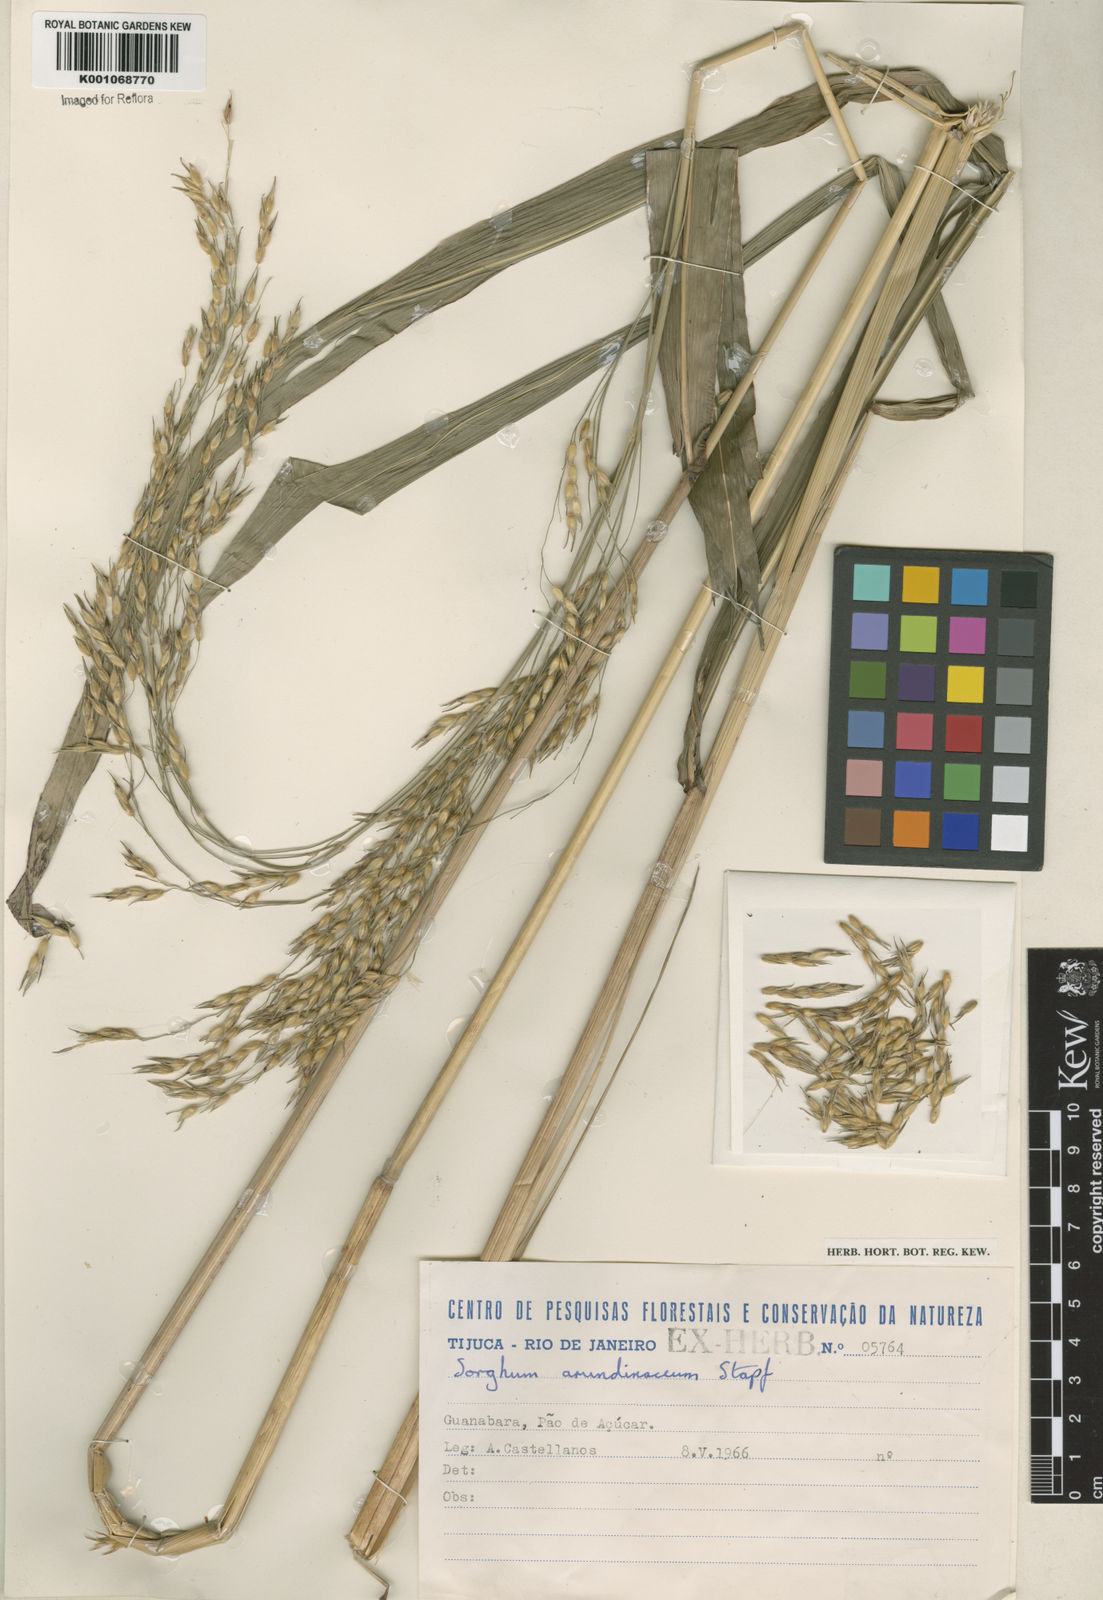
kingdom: Plantae
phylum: Tracheophyta
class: Liliopsida
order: Poales
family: Poaceae
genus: Sorghum
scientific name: Sorghum arundinaceum
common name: Sorghum
